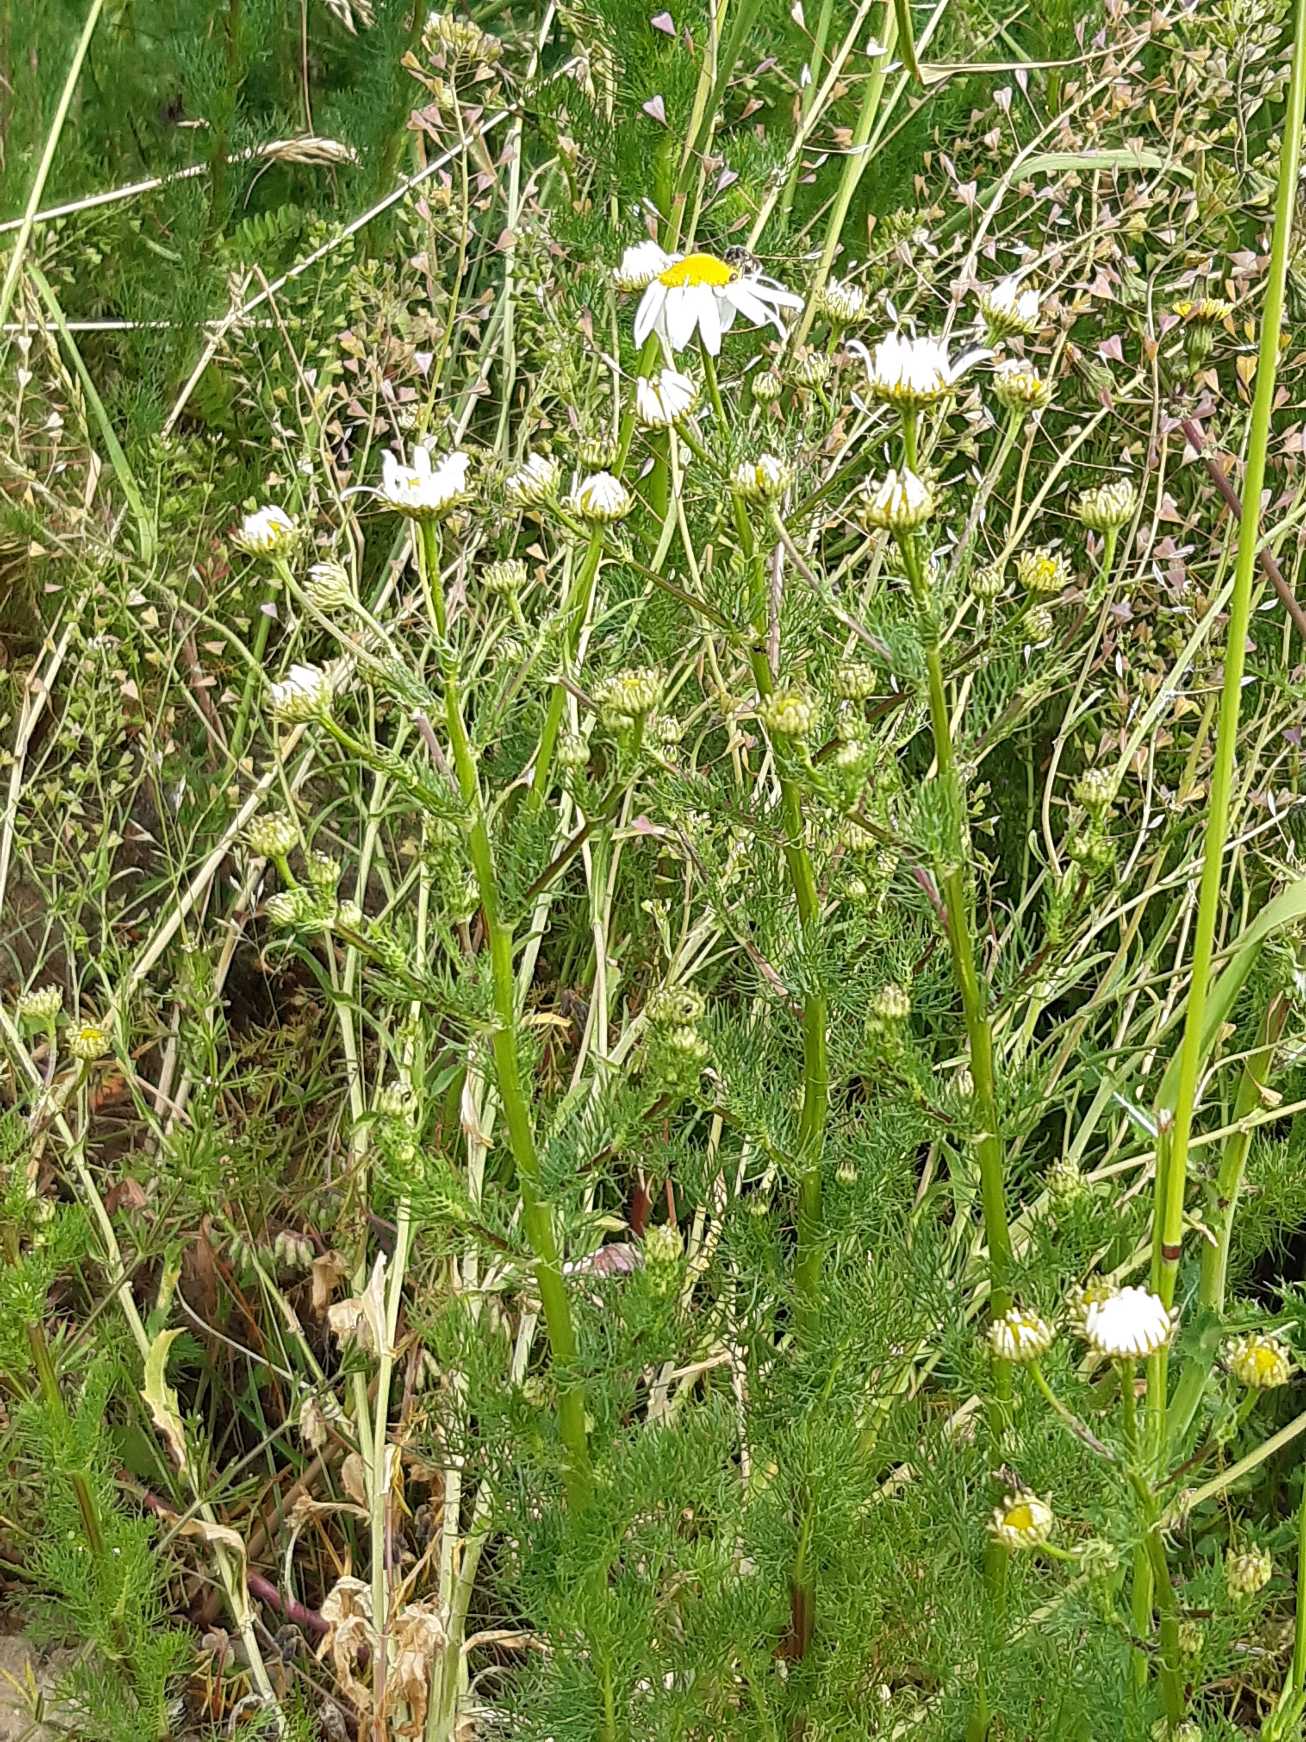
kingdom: Plantae
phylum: Tracheophyta
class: Magnoliopsida
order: Asterales
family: Asteraceae
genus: Tripleurospermum
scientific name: Tripleurospermum inodorum
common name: Lugtløs kamille
